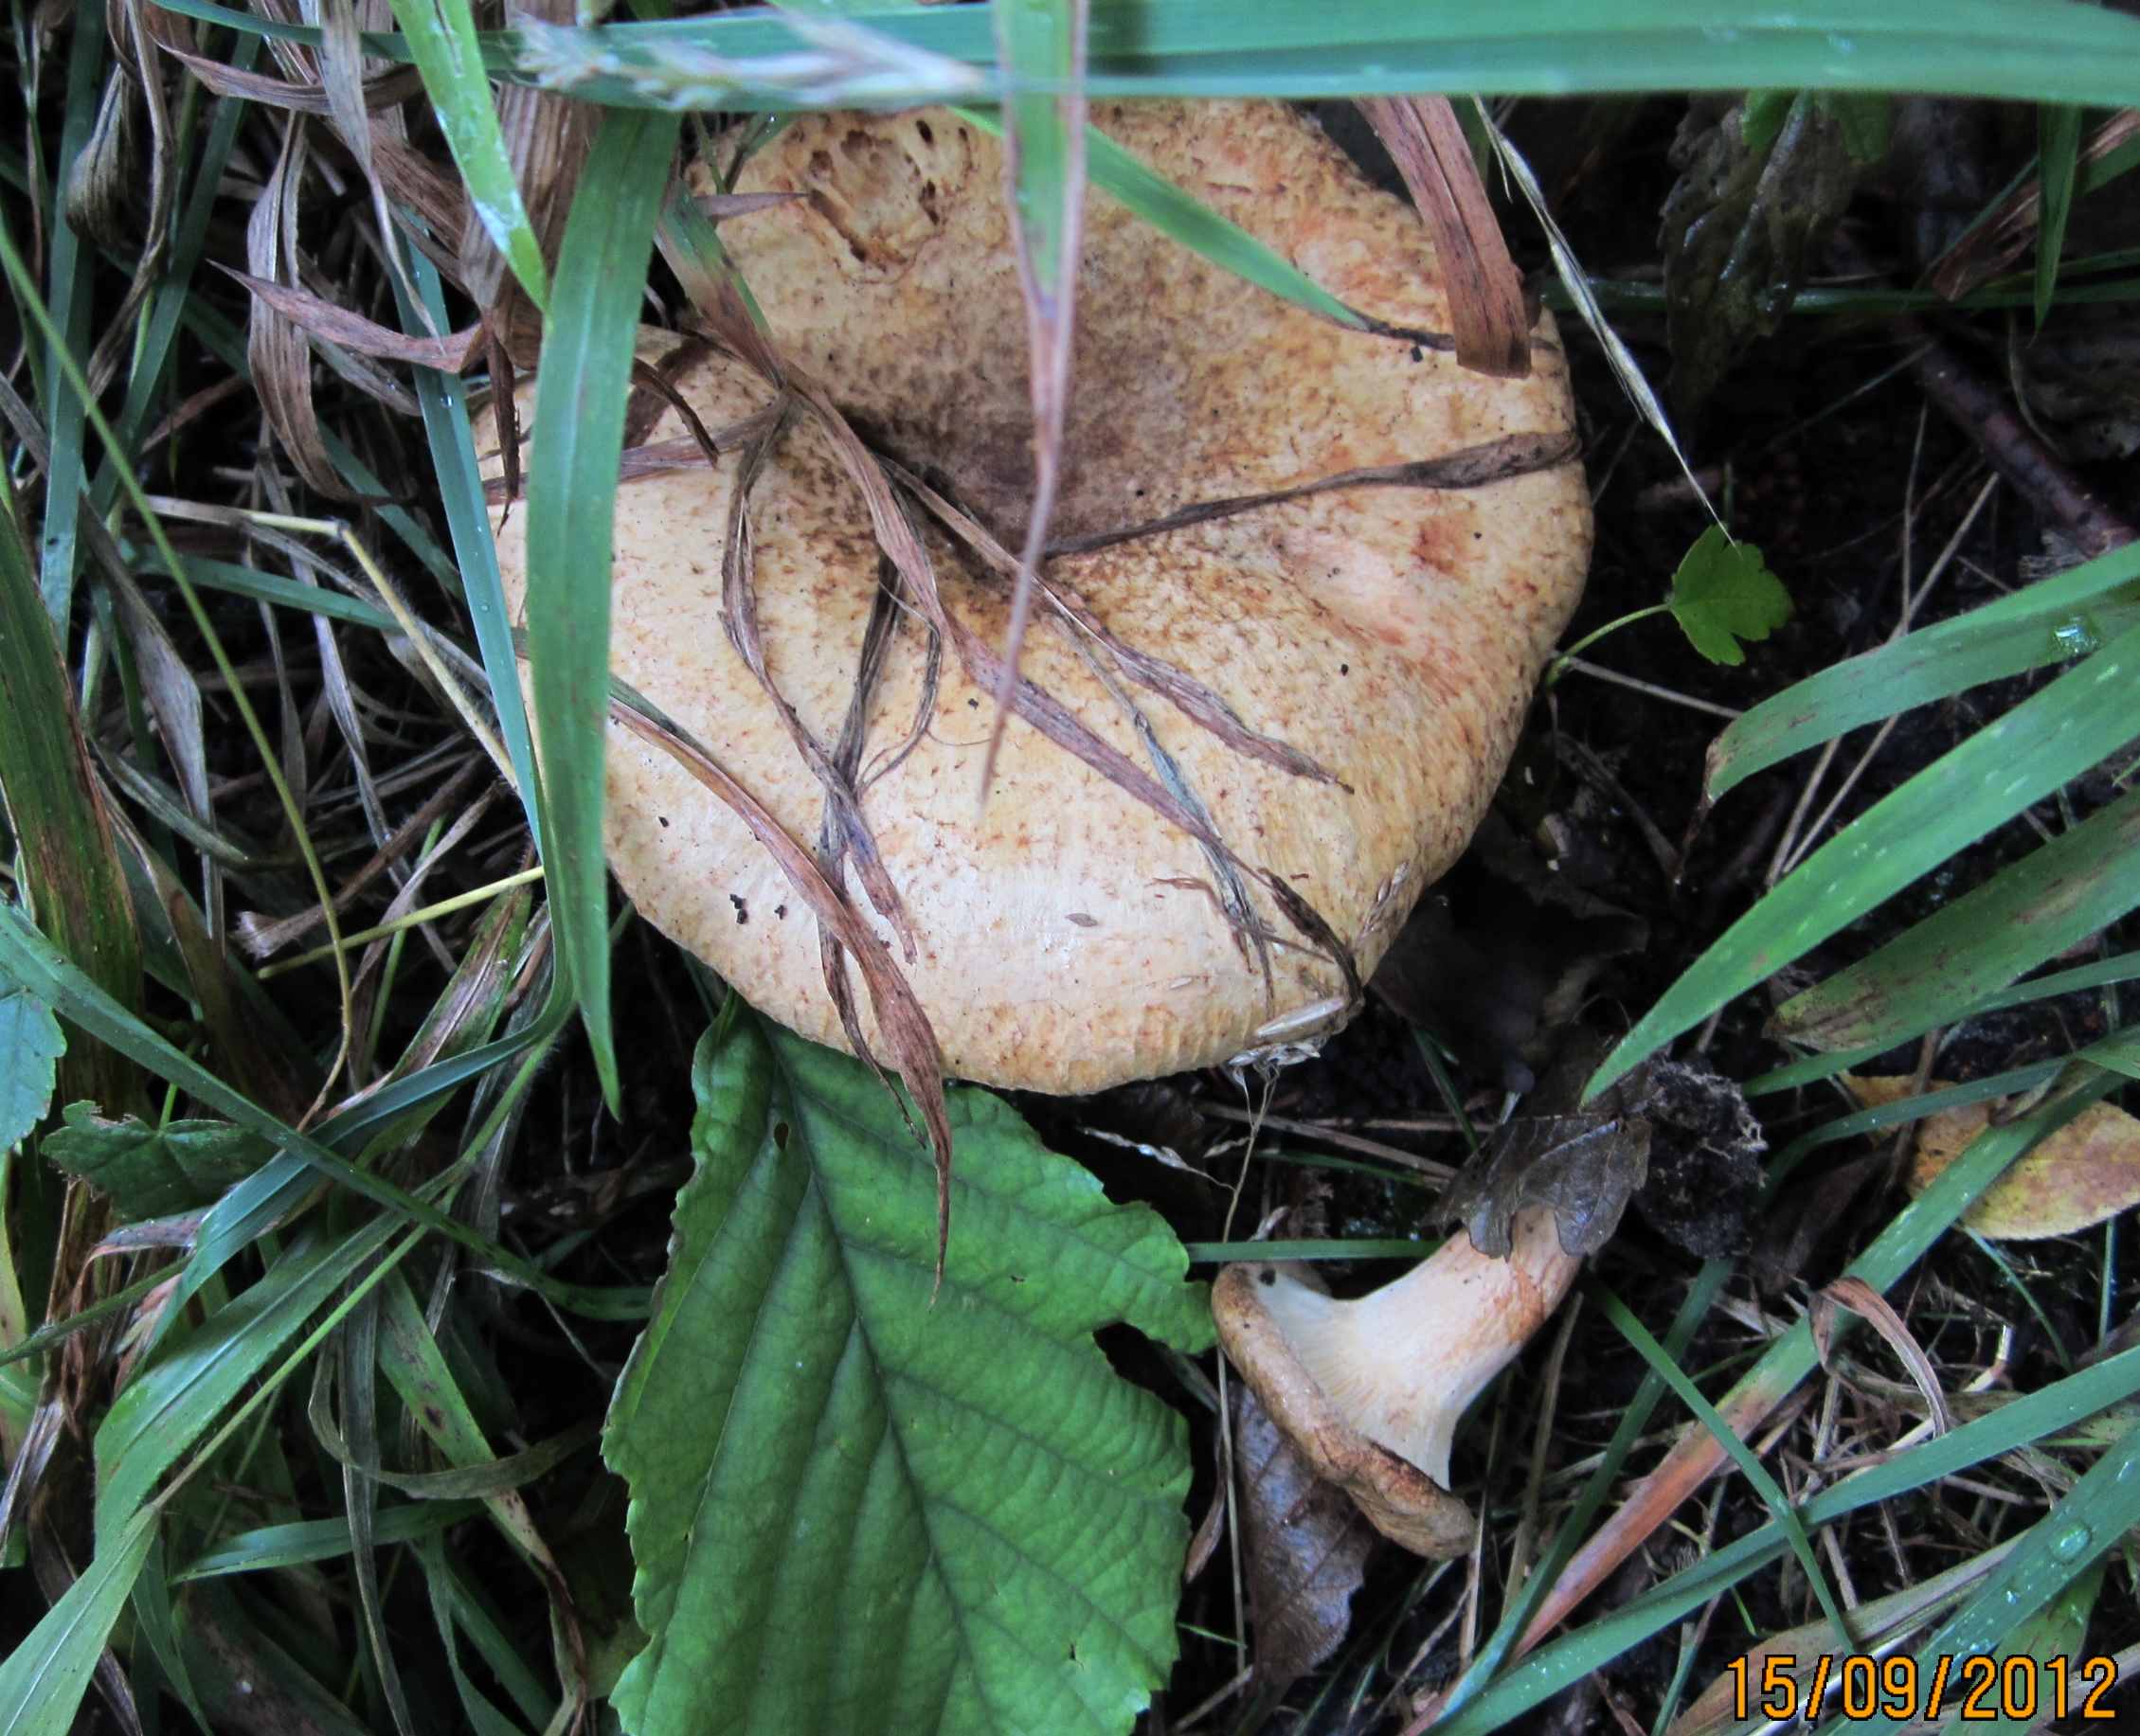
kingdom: Fungi
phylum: Basidiomycota
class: Agaricomycetes
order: Boletales
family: Paxillaceae
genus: Paxillus
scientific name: Paxillus rubicundulus
